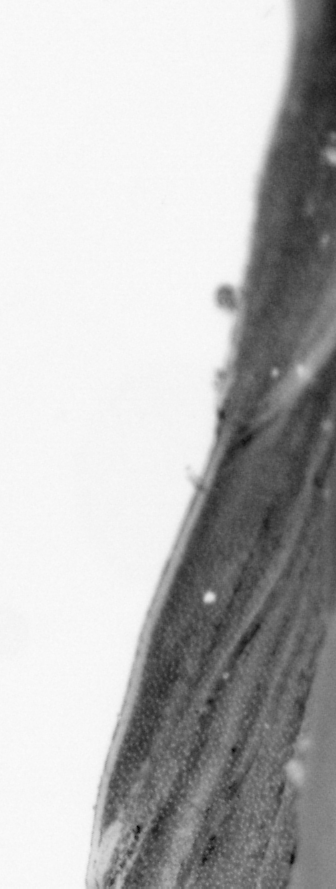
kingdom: Animalia
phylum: Chordata
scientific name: Chordata
